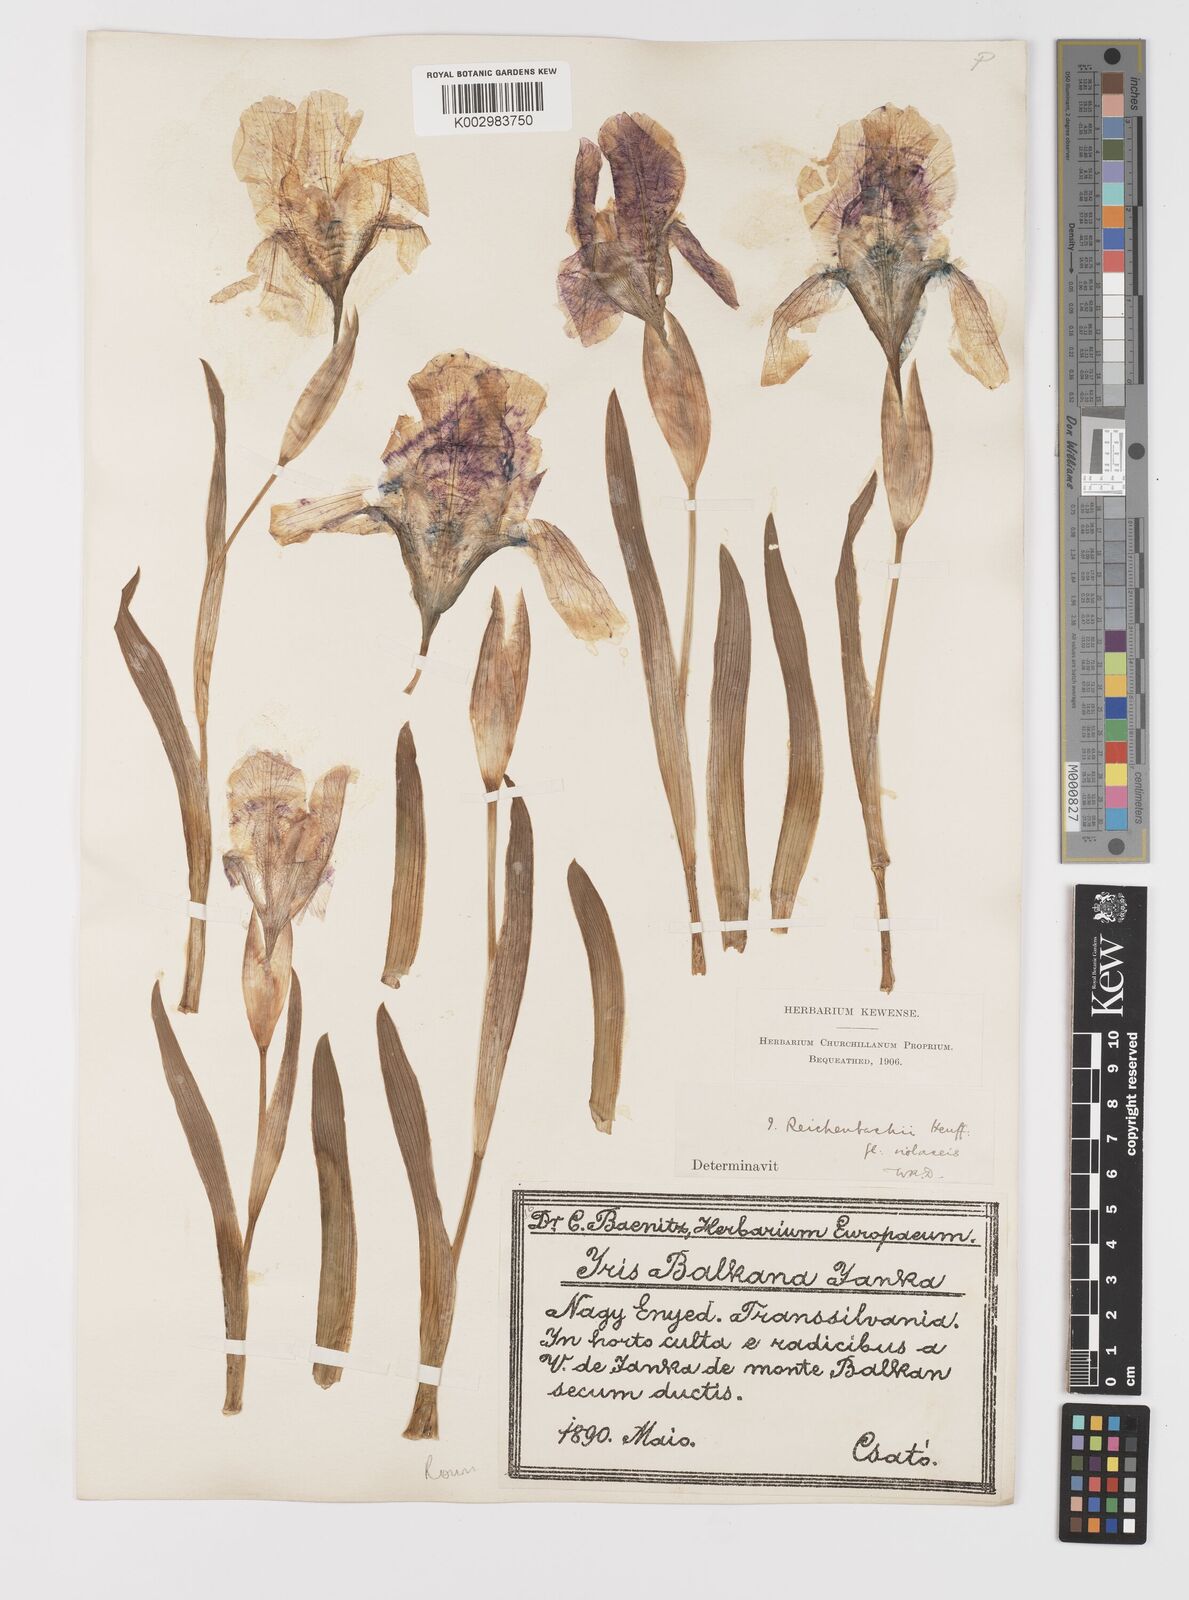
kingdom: Plantae
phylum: Tracheophyta
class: Liliopsida
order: Asparagales
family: Iridaceae
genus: Iris
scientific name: Iris reichenbachii
